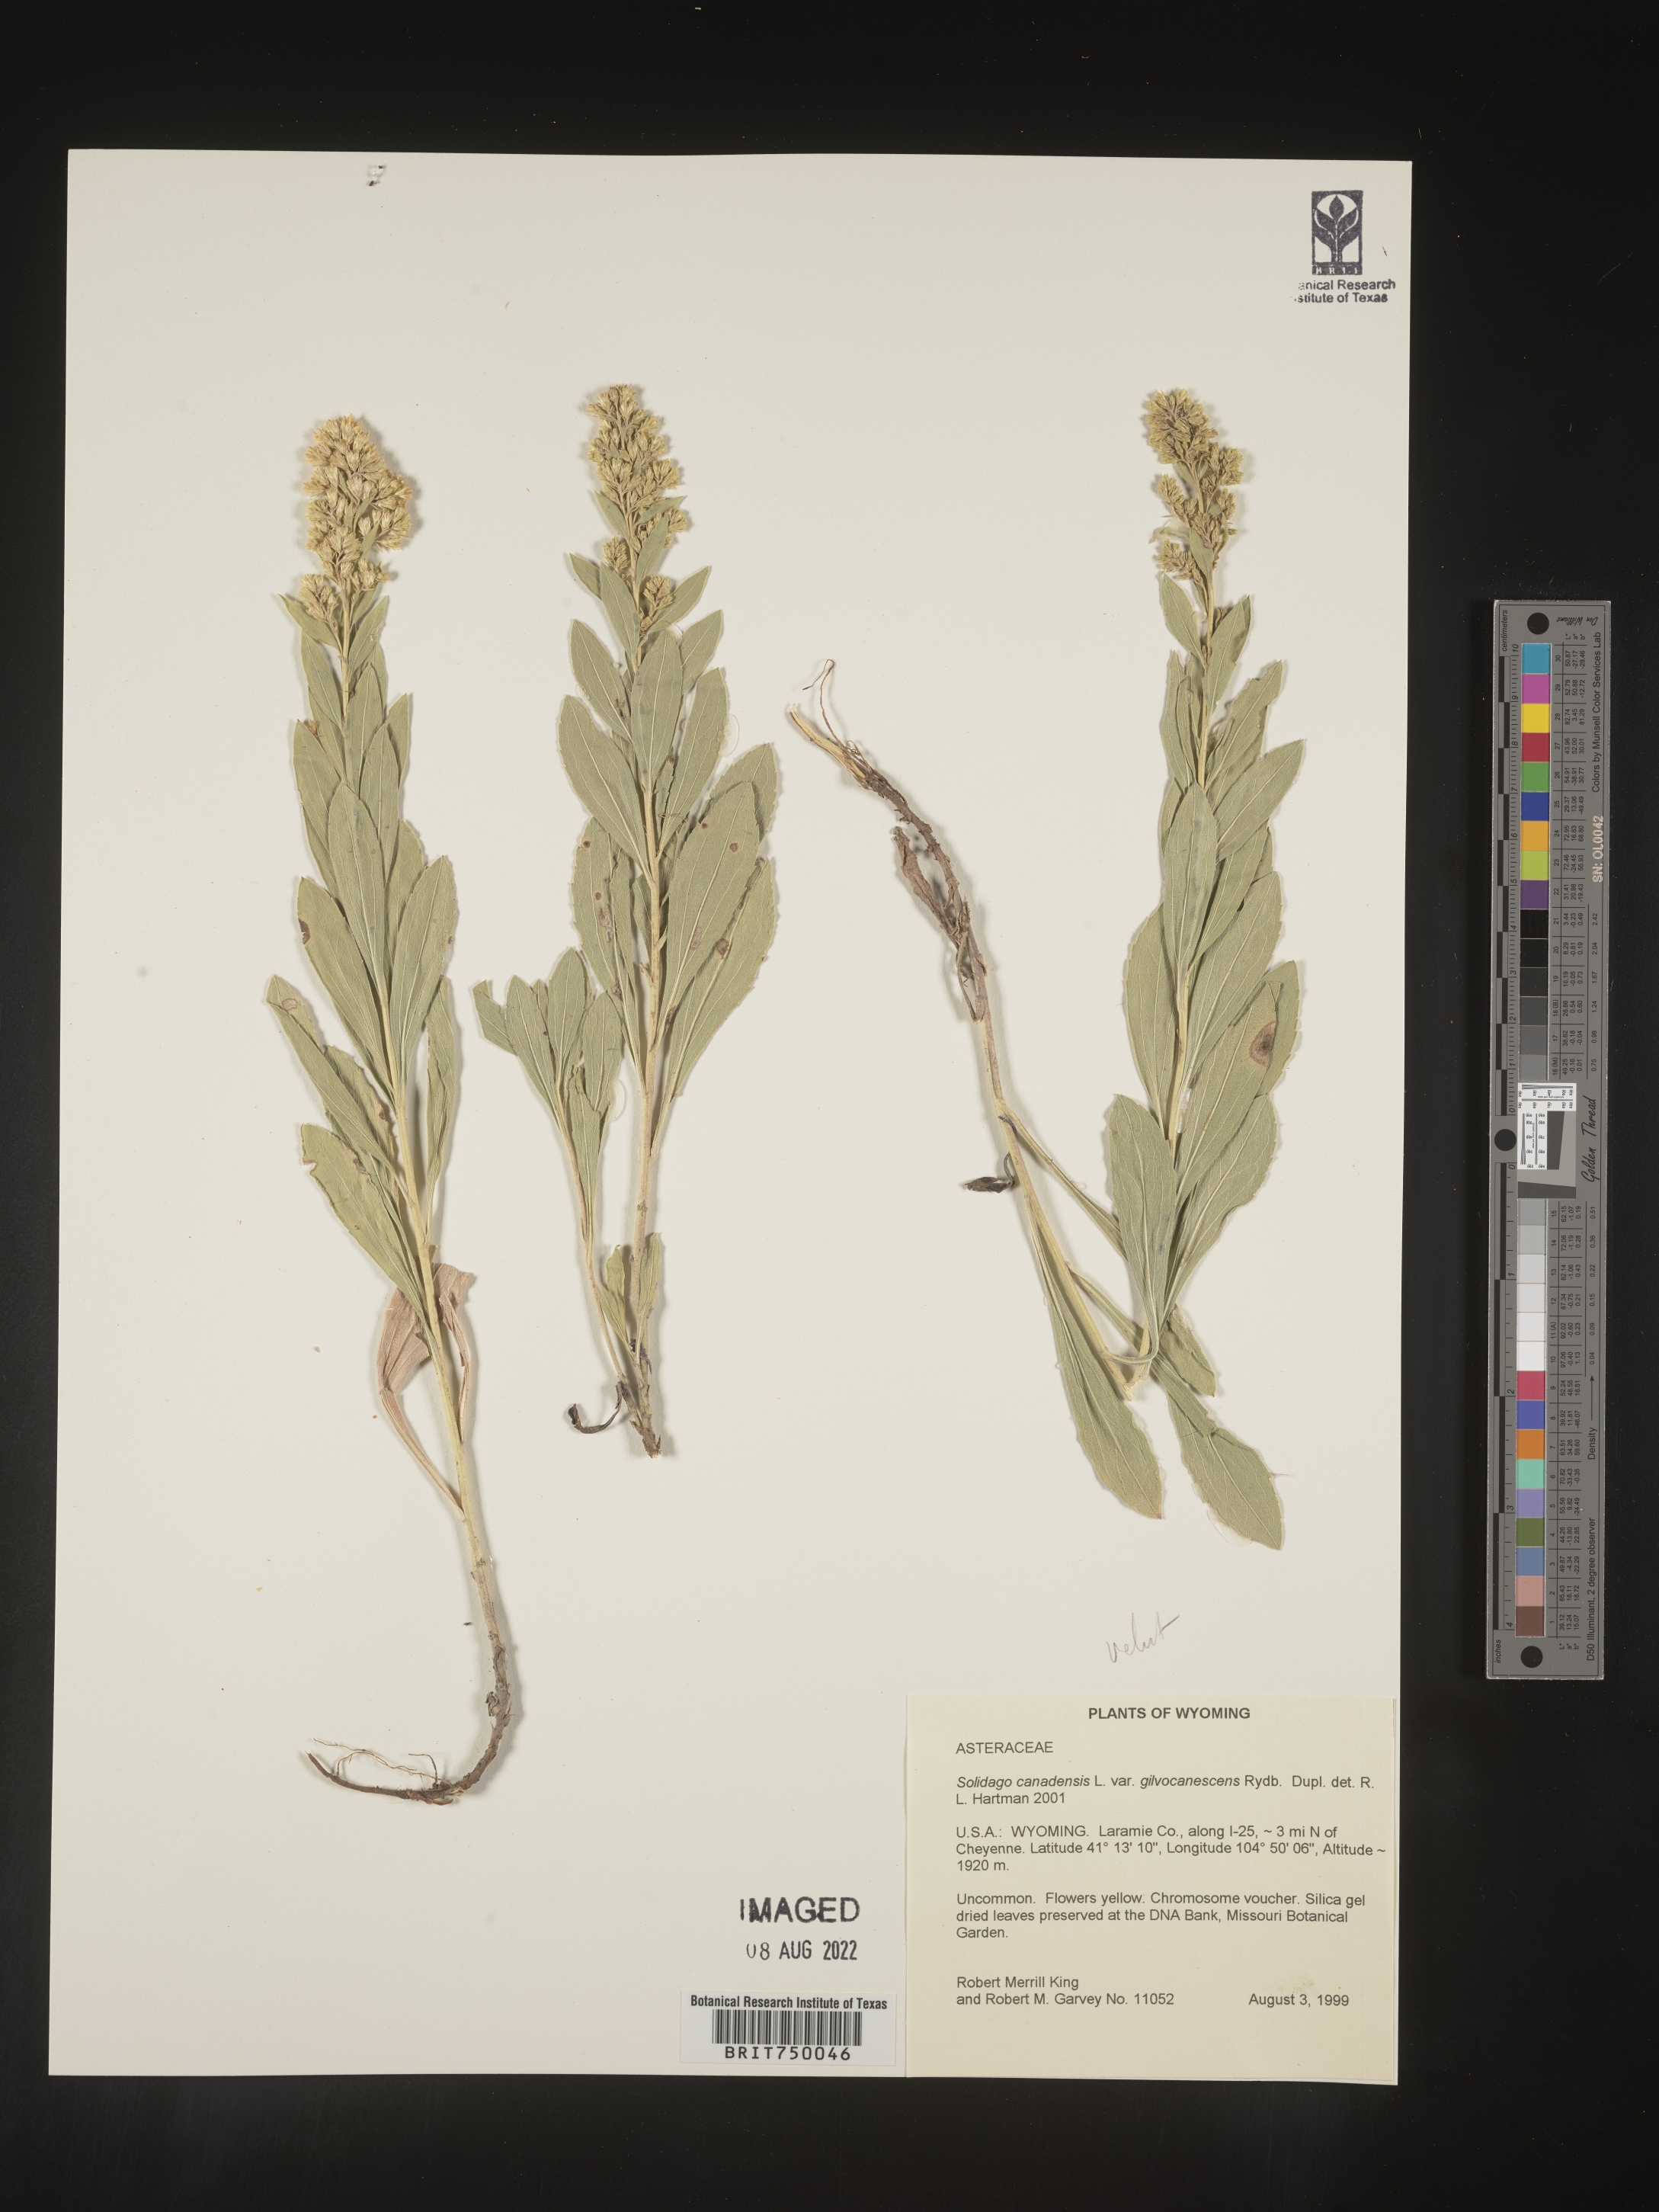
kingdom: Plantae
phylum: Tracheophyta
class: Magnoliopsida
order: Asterales
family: Asteraceae
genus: Solidago
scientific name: Solidago velutina
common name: Three-nerve goldenrod
